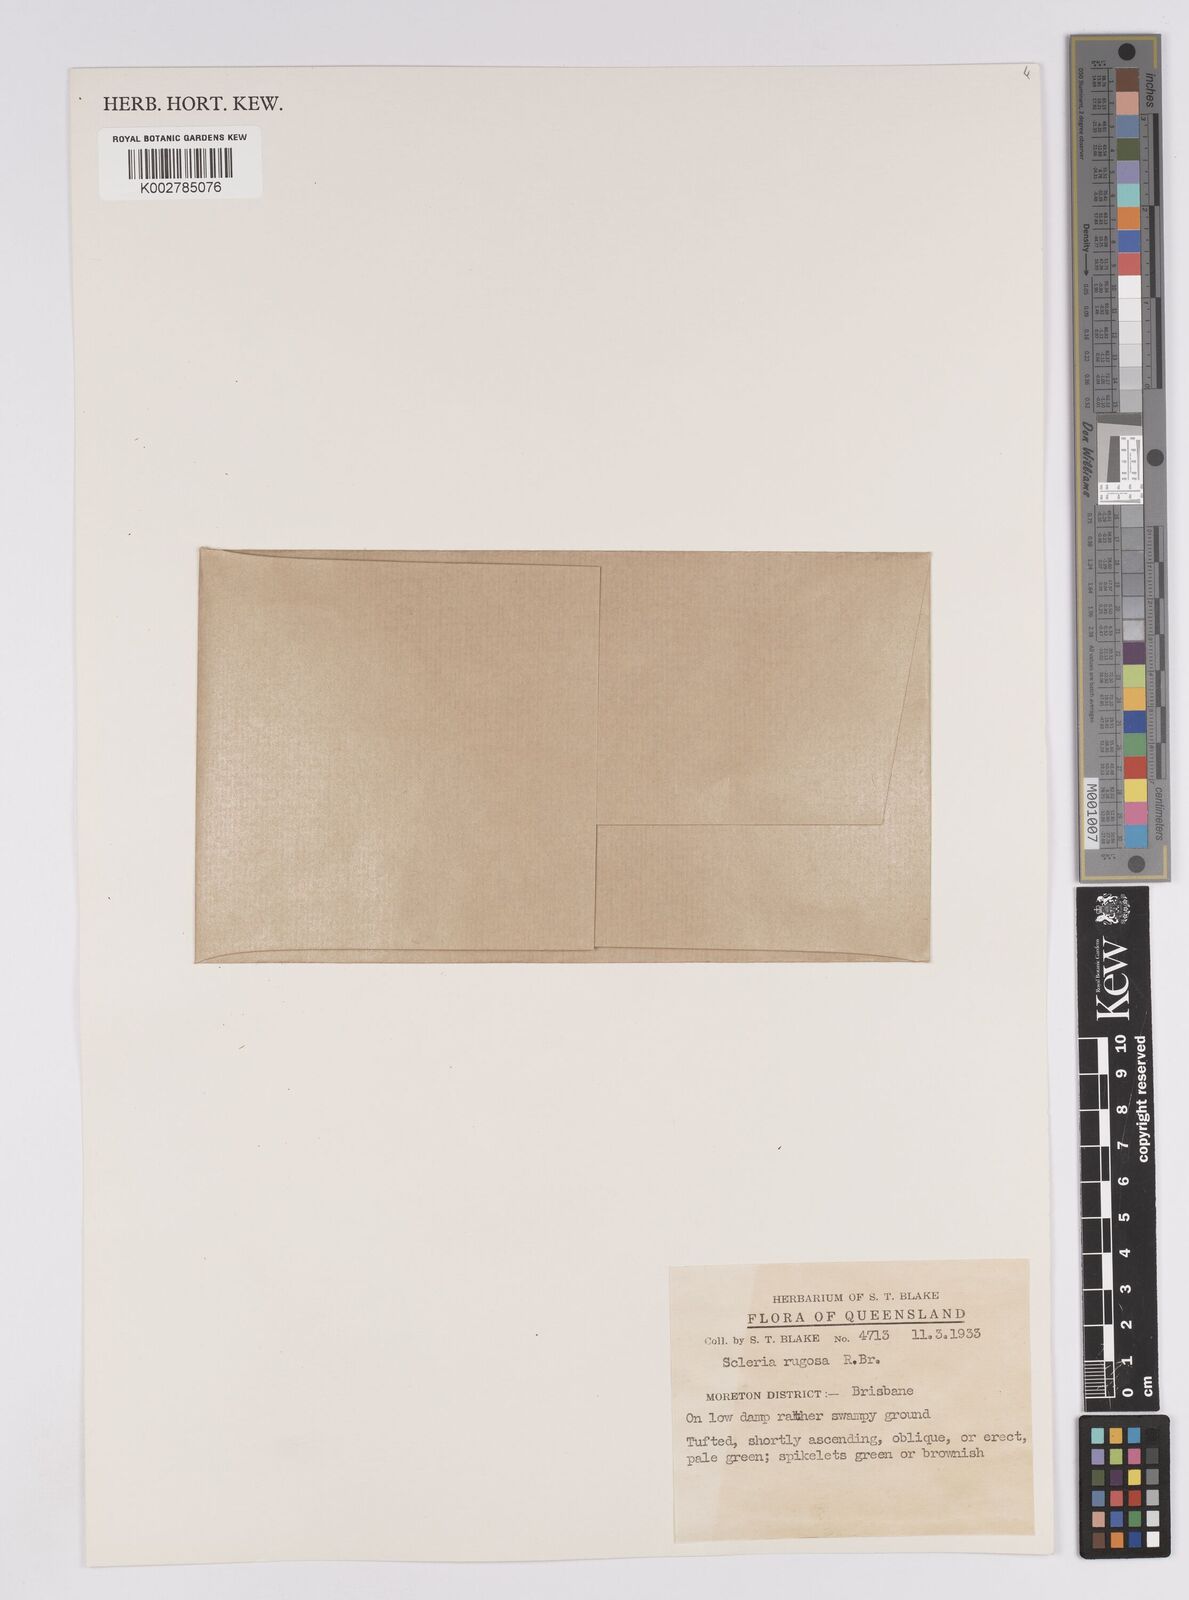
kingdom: Plantae
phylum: Tracheophyta
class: Liliopsida
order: Poales
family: Cyperaceae
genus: Scleria
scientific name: Scleria rugosa
